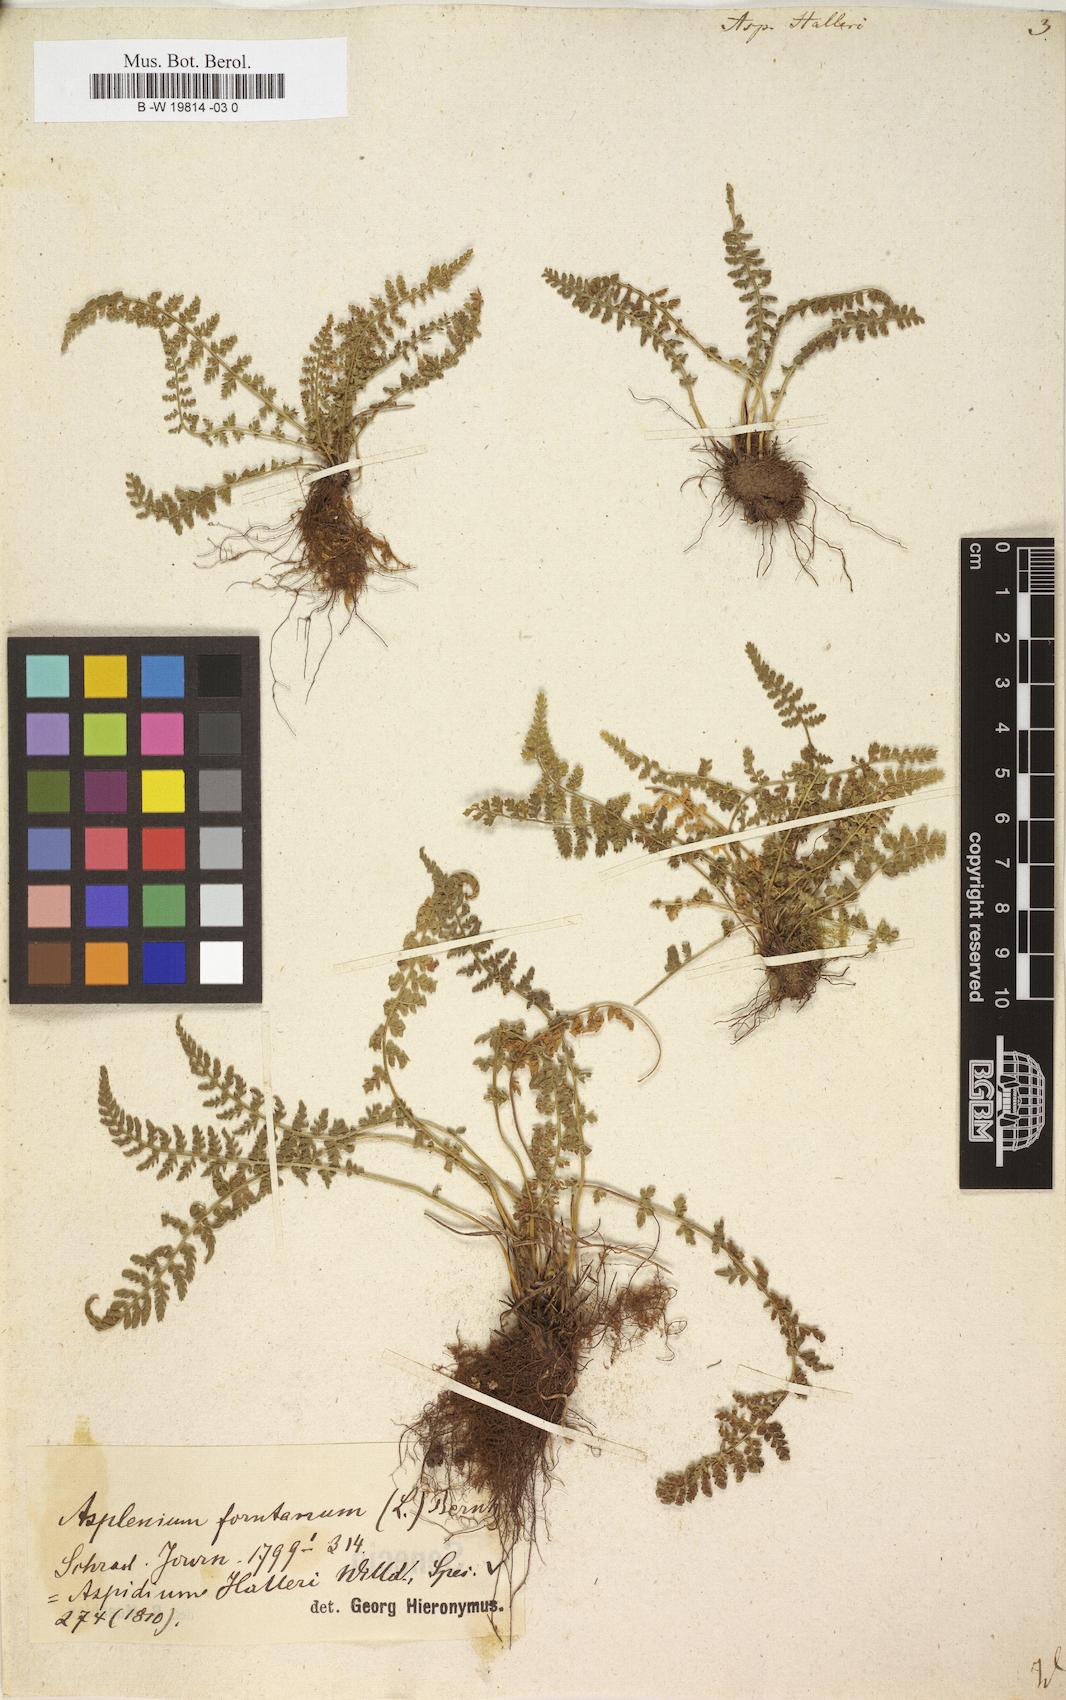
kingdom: Plantae
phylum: Tracheophyta
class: Polypodiopsida
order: Polypodiales
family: Aspleniaceae
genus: Asplenium
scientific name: Asplenium fontanum
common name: Fountain spleenwort
